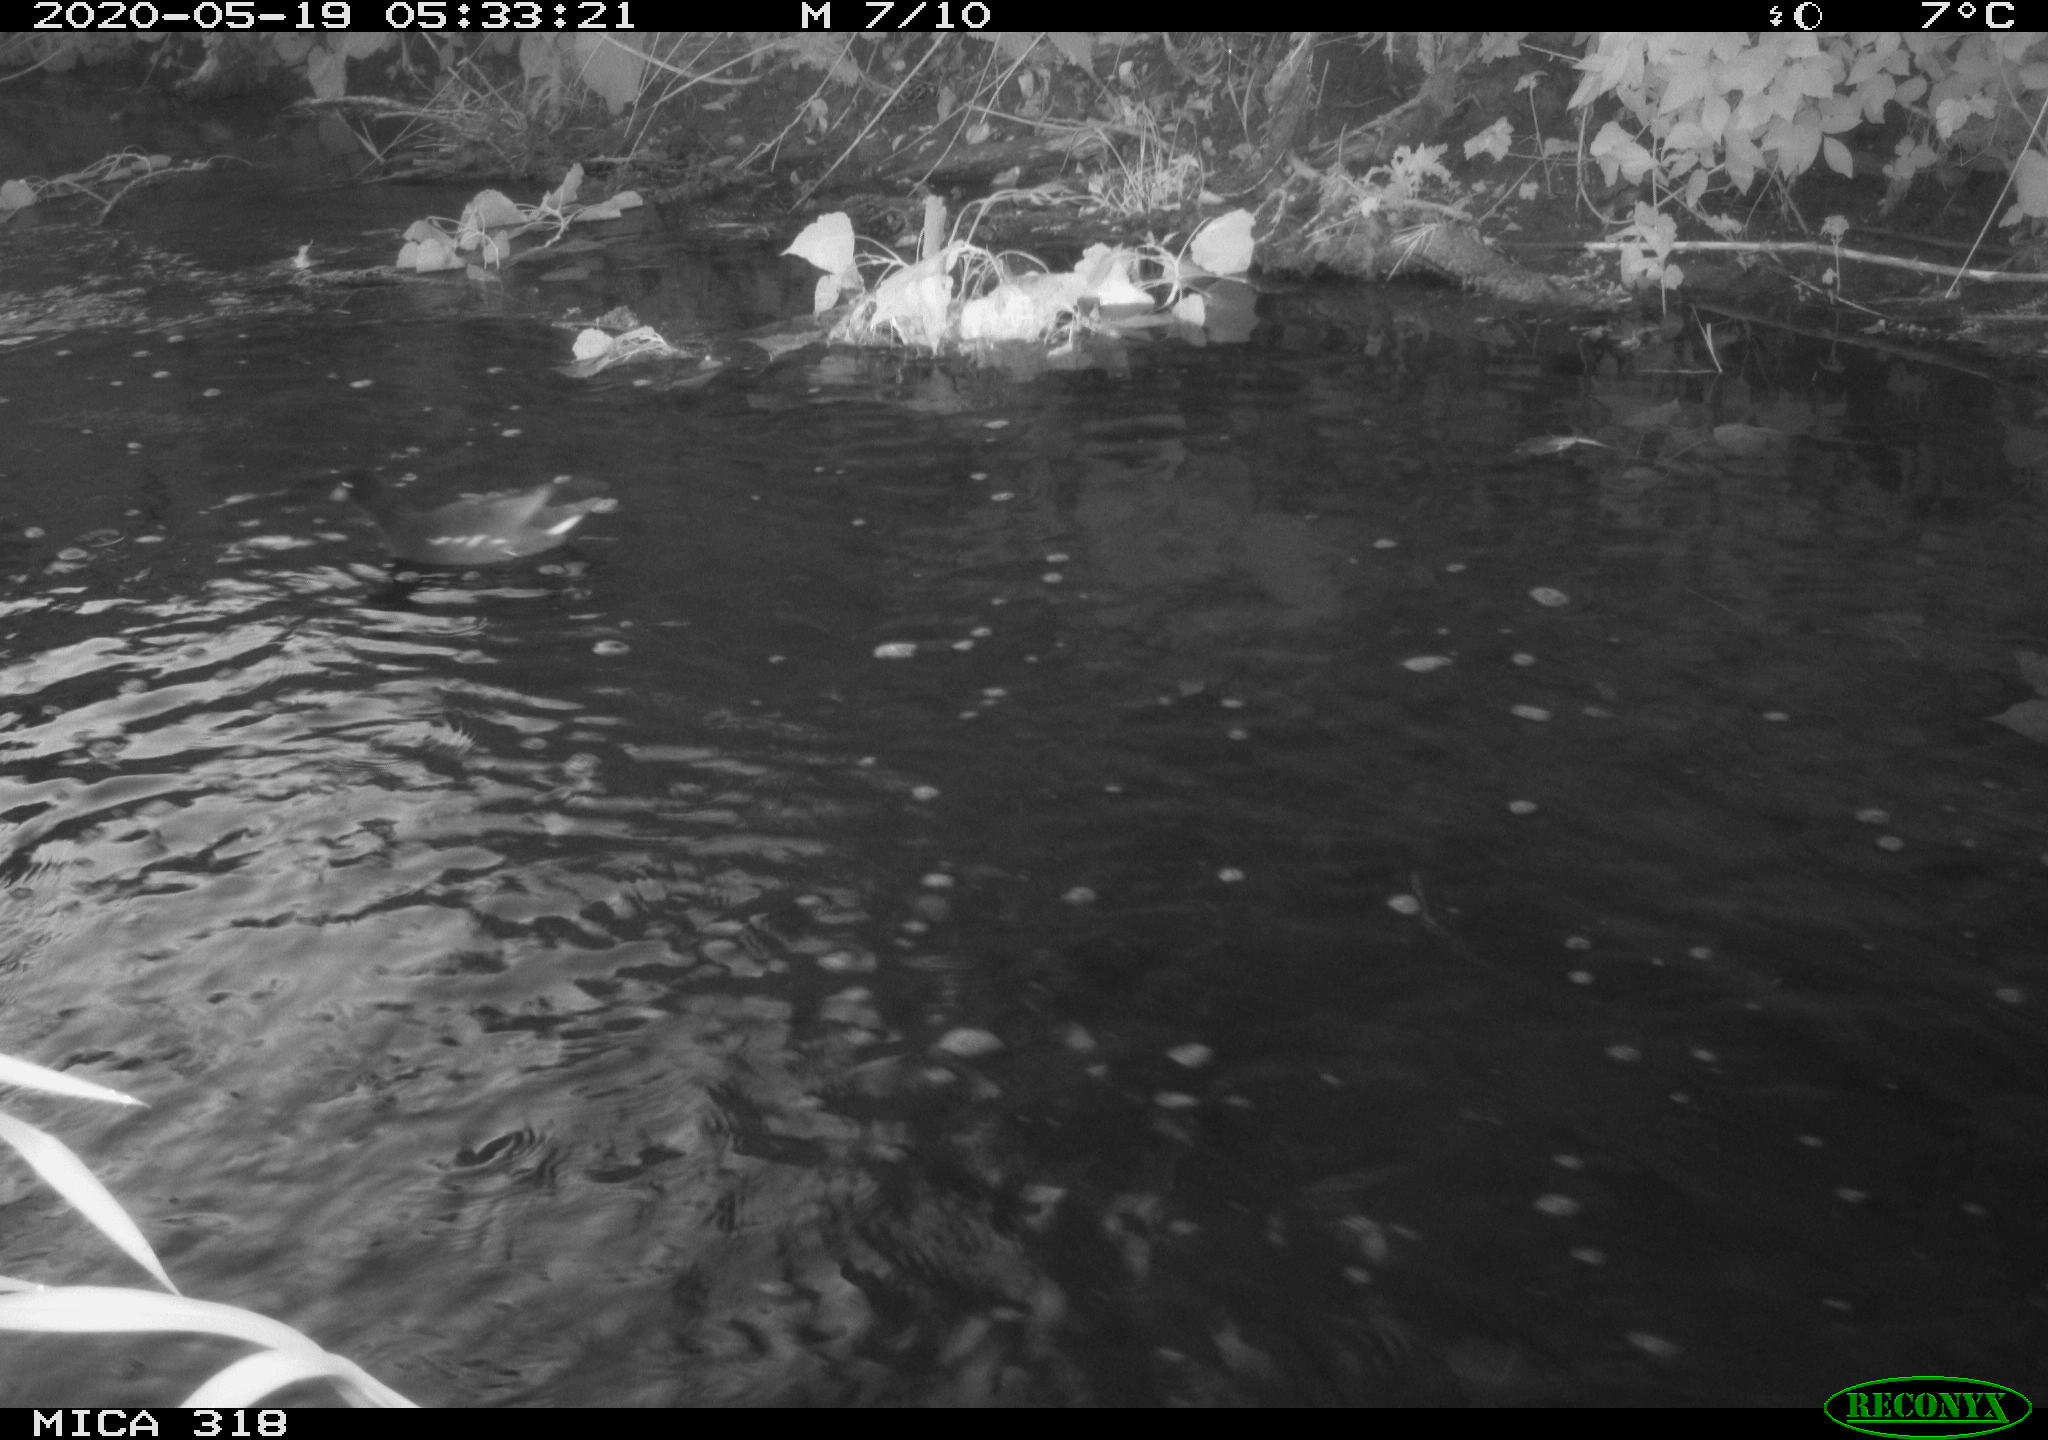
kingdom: Animalia
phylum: Chordata
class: Aves
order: Gruiformes
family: Rallidae
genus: Gallinula
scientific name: Gallinula chloropus
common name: Common moorhen
